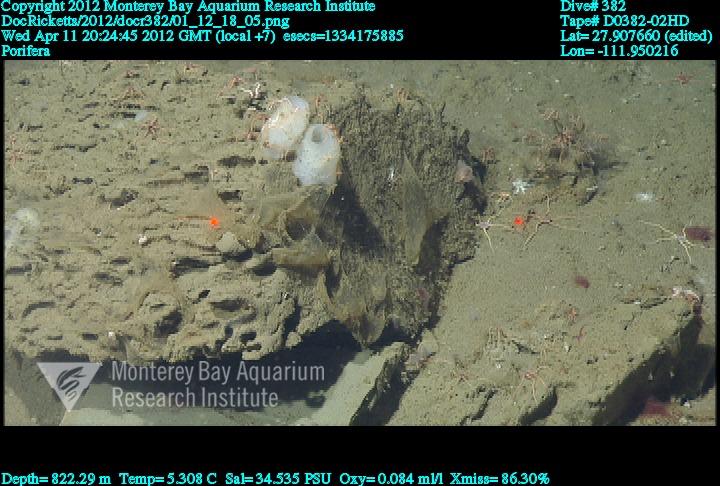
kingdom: Animalia
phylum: Porifera
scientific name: Porifera
